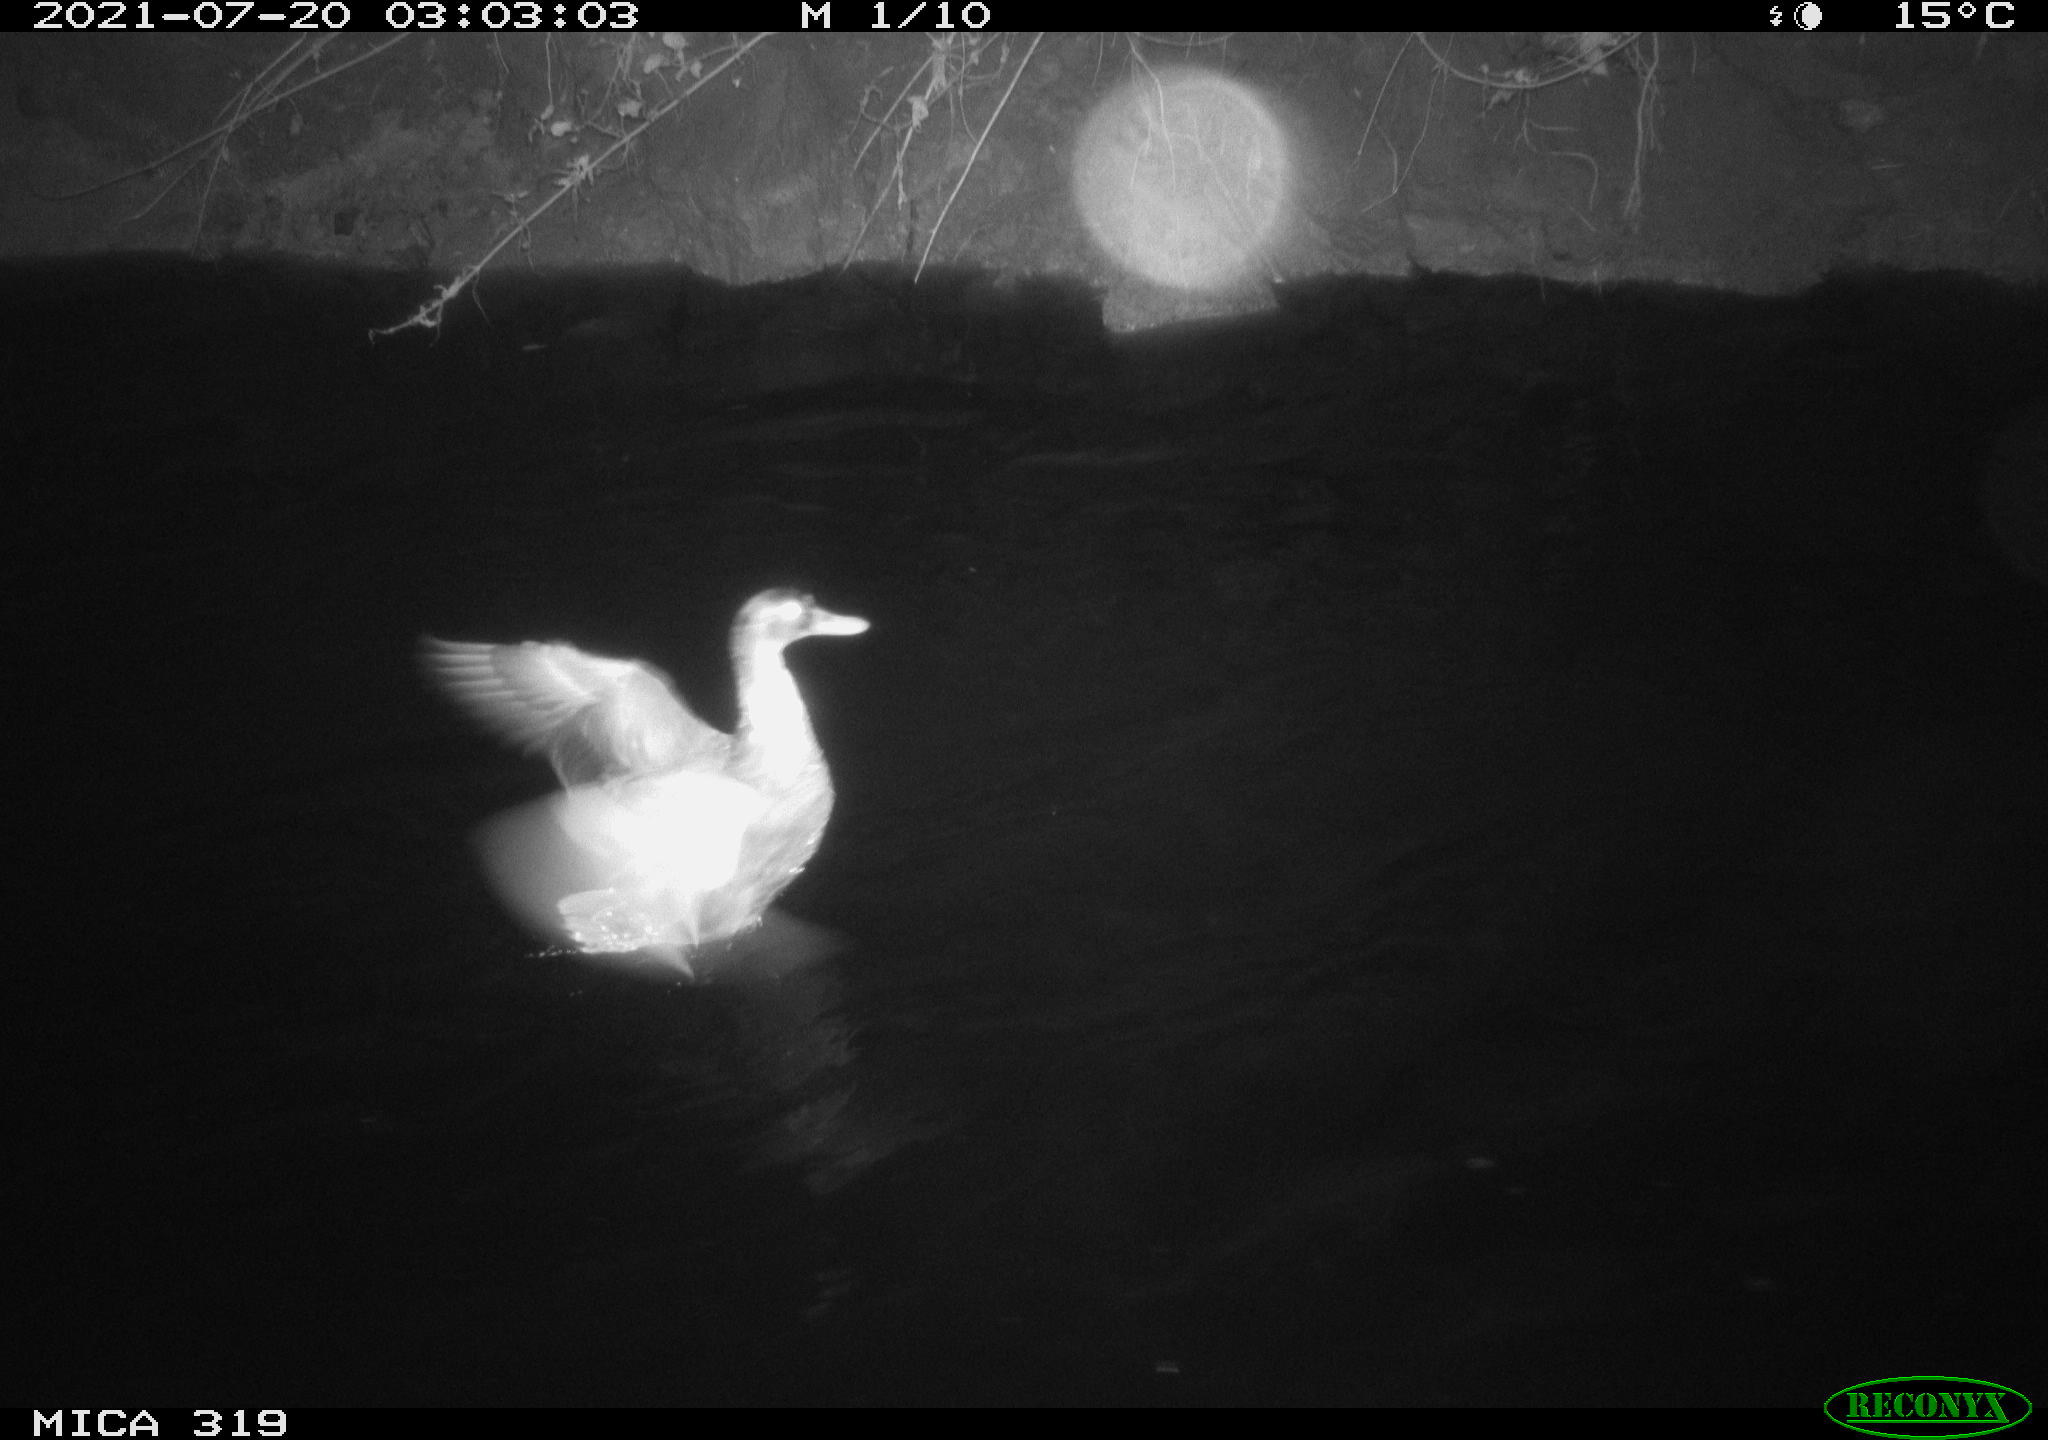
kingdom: Animalia
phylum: Chordata
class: Aves
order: Anseriformes
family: Anatidae
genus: Anas
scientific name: Anas platyrhynchos
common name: Mallard
